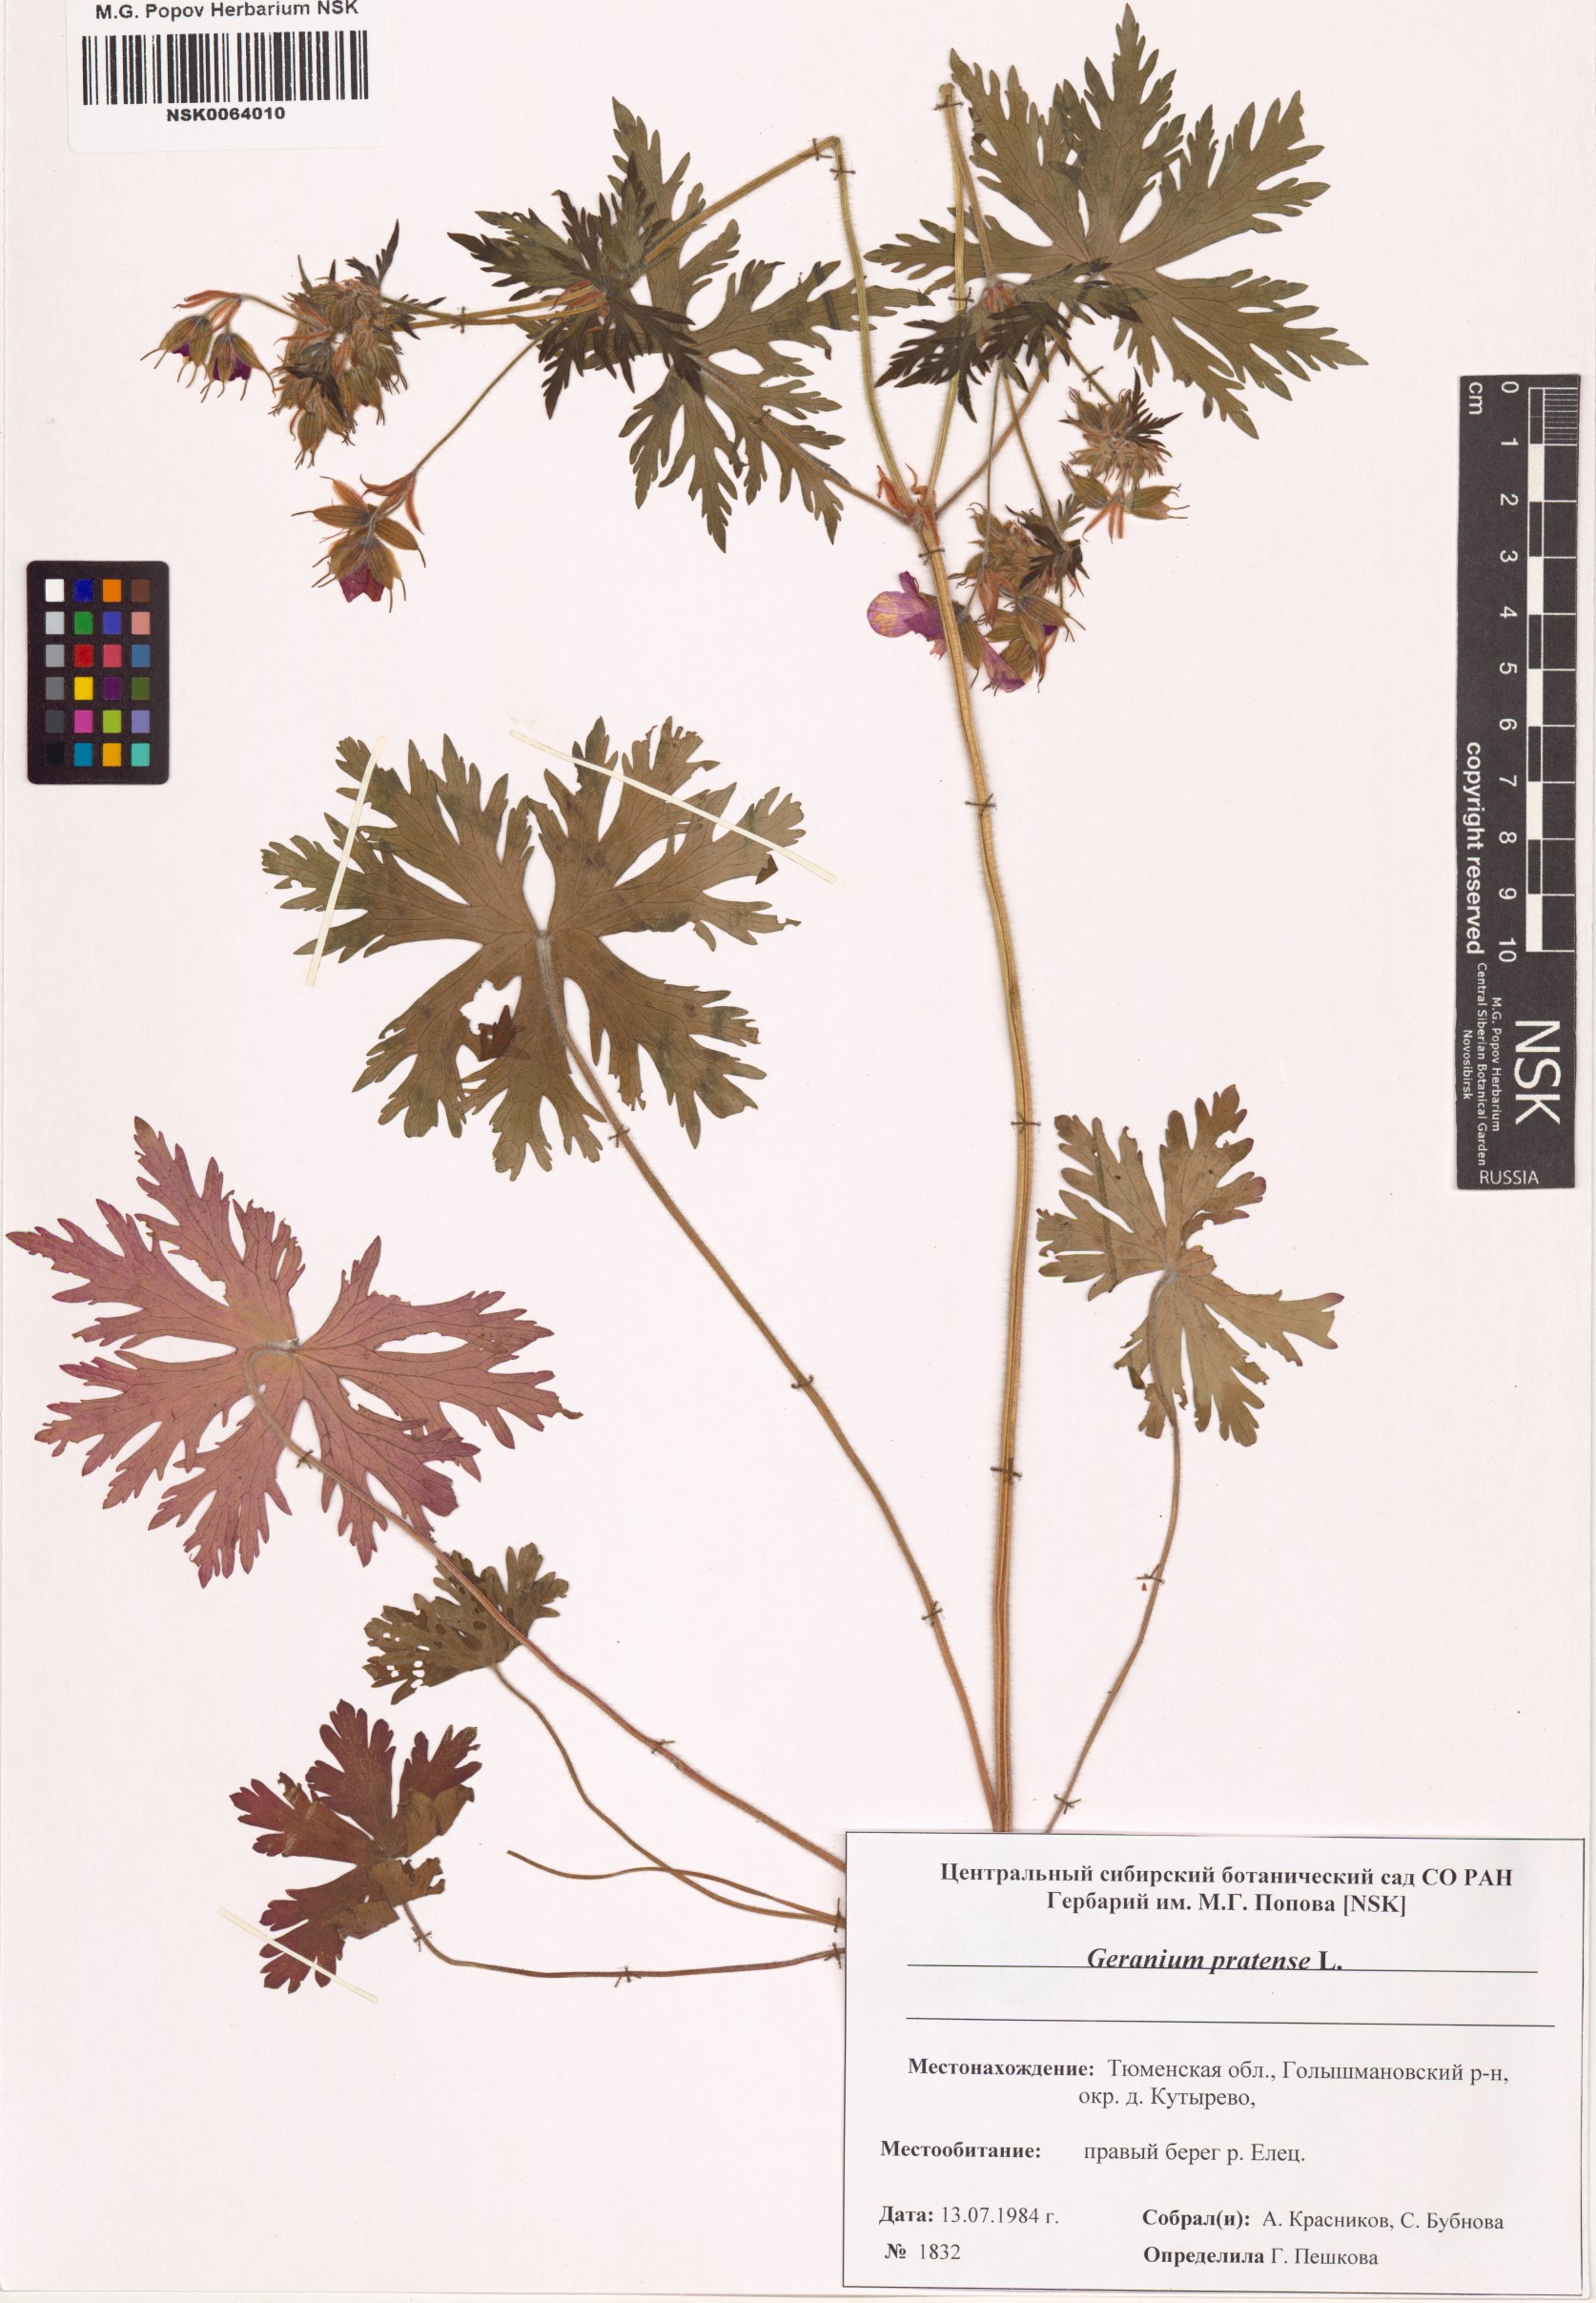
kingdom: Plantae
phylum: Tracheophyta
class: Magnoliopsida
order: Geraniales
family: Geraniaceae
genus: Geranium
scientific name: Geranium pratense
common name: Meadow crane's-bill
